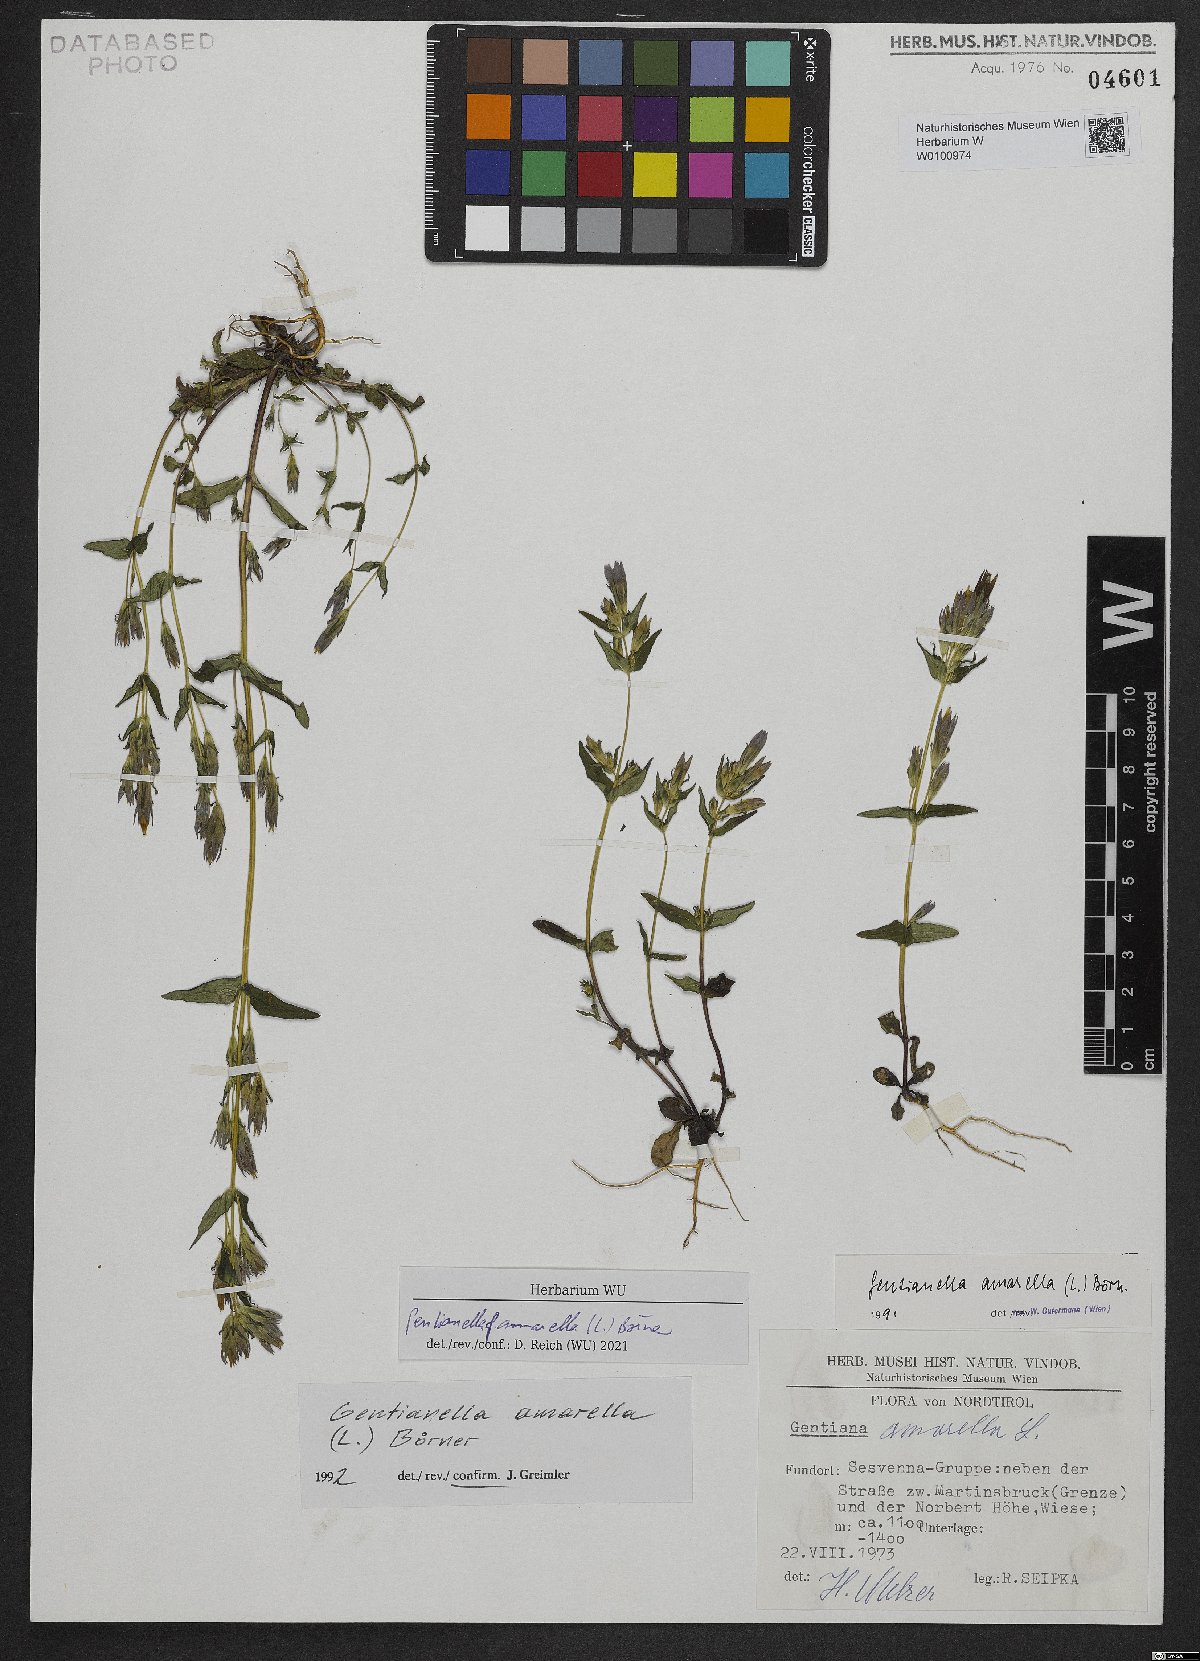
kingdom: Plantae
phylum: Tracheophyta
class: Magnoliopsida
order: Gentianales
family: Gentianaceae
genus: Gentianella
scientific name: Gentianella amarella
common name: Autumn gentian
